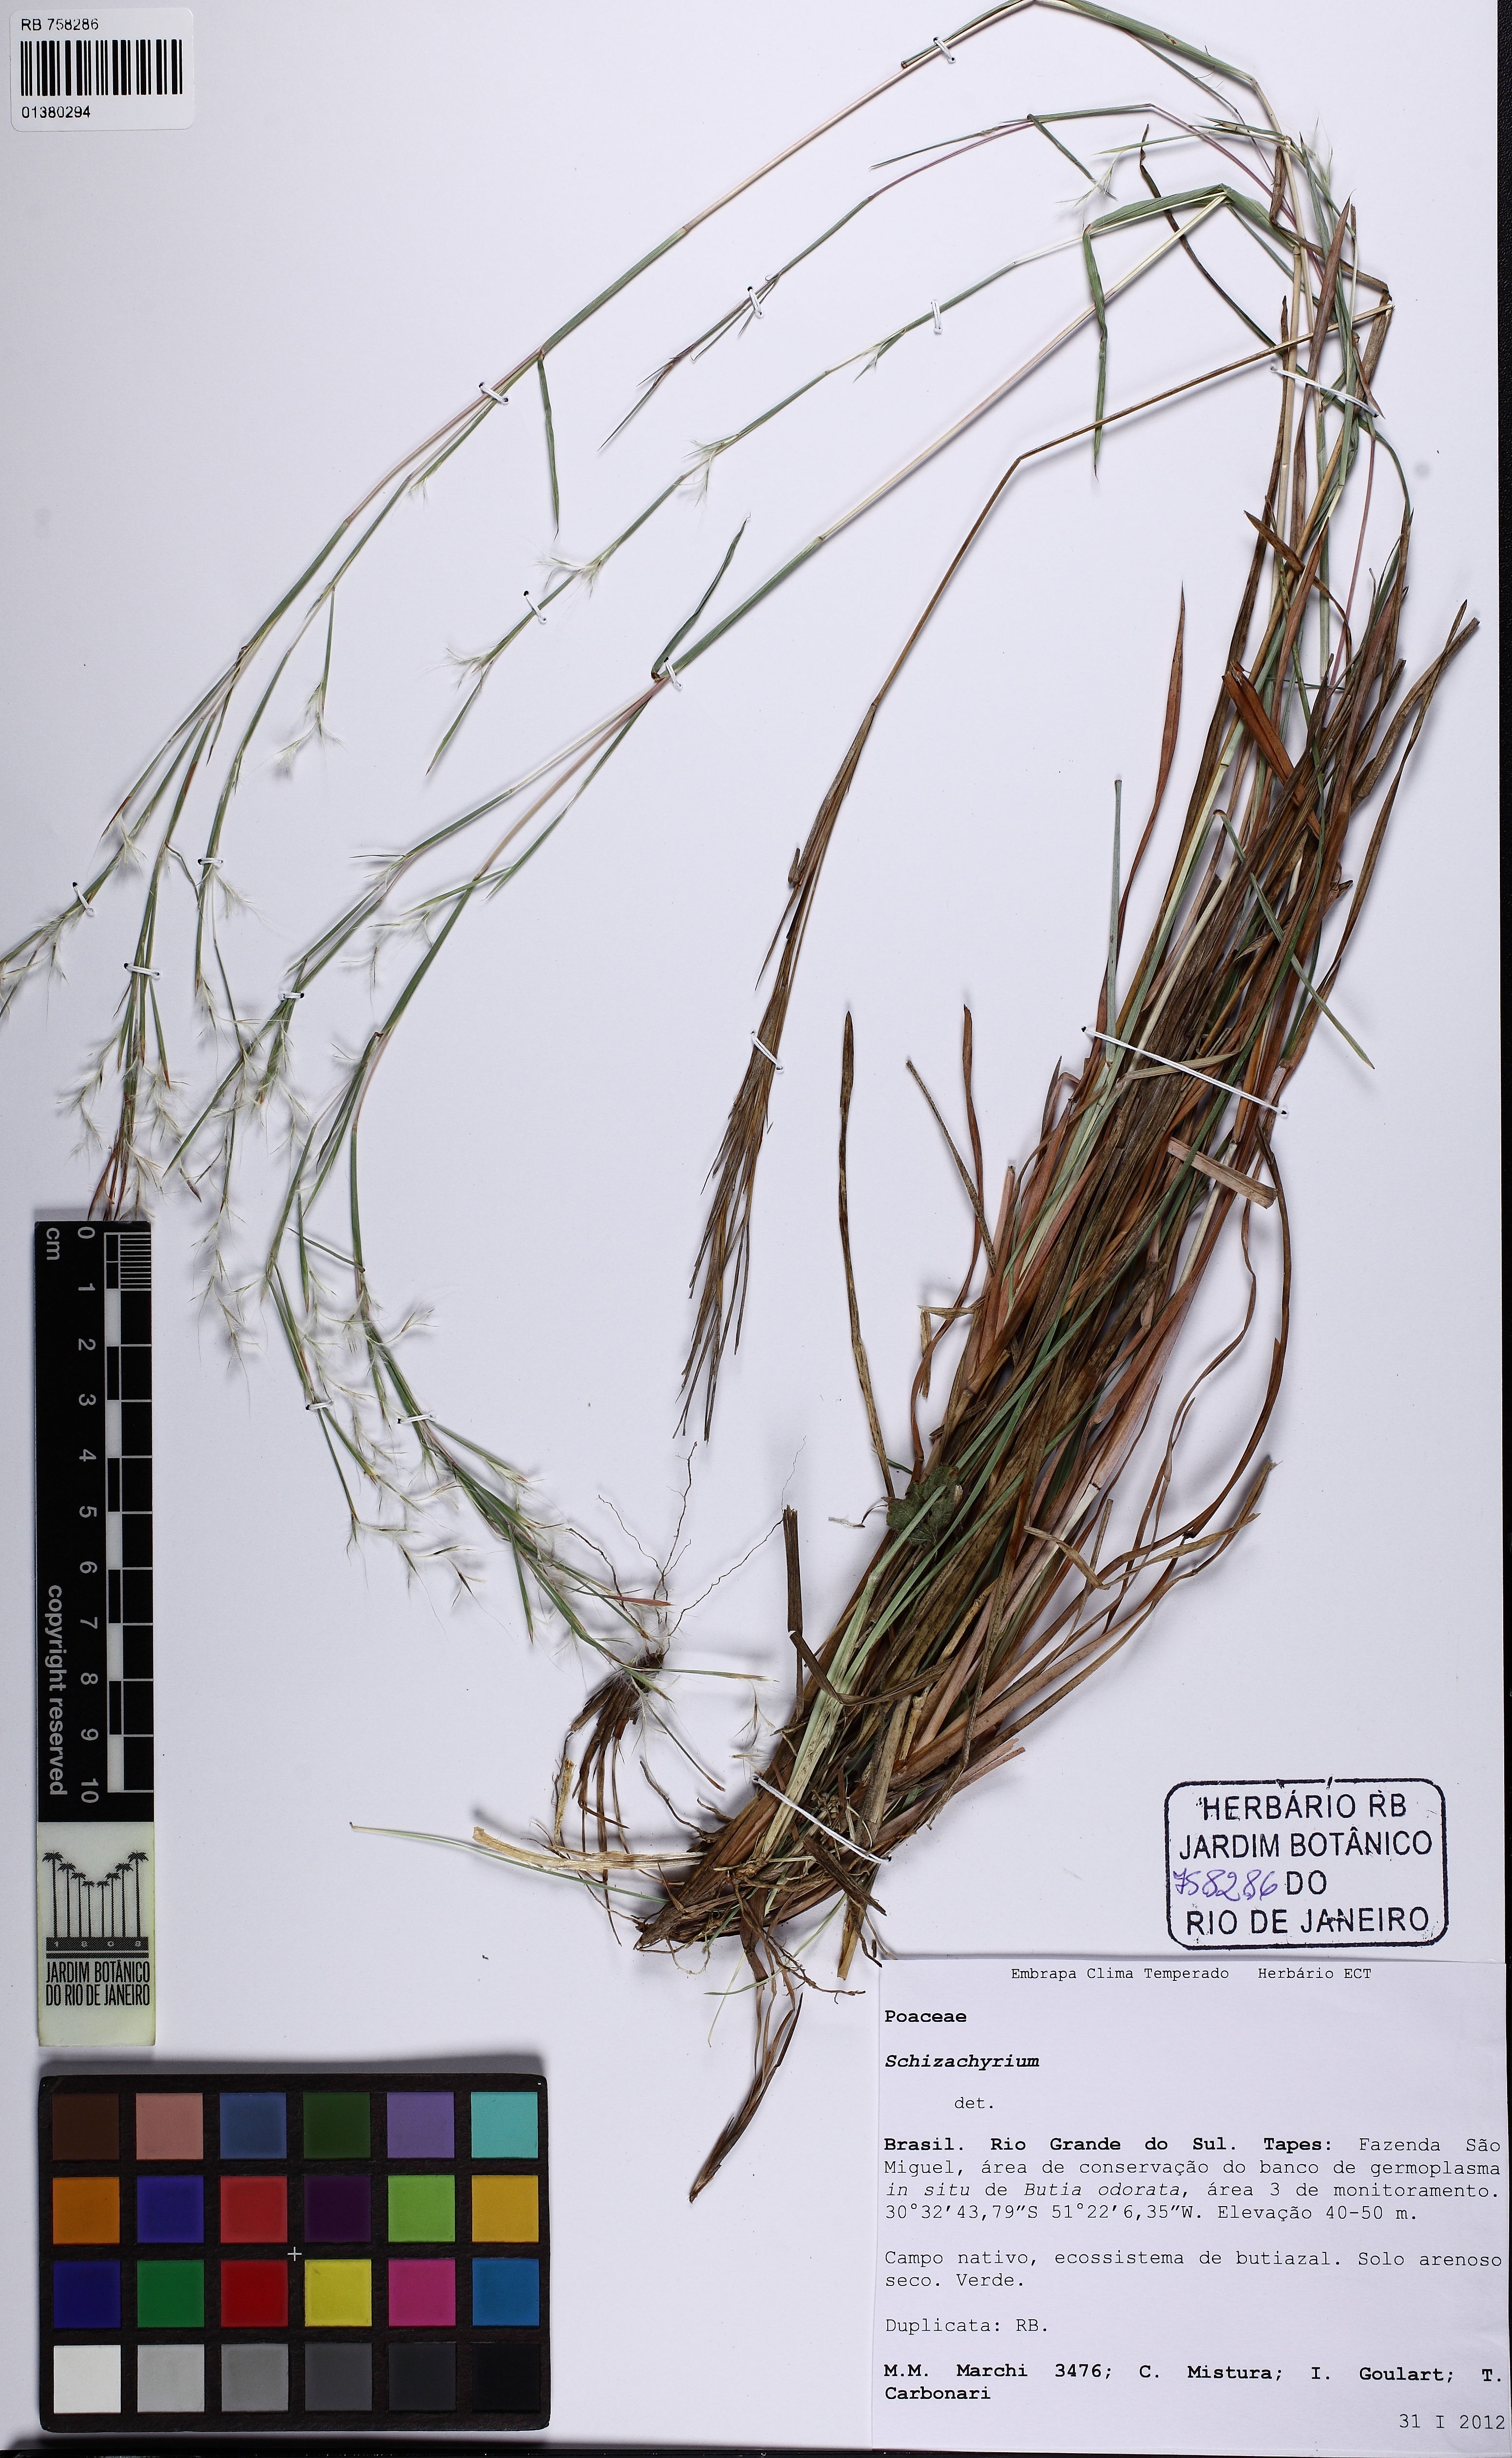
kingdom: Plantae
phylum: Tracheophyta
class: Liliopsida
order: Poales
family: Poaceae
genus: Schizachyrium
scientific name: Schizachyrium
